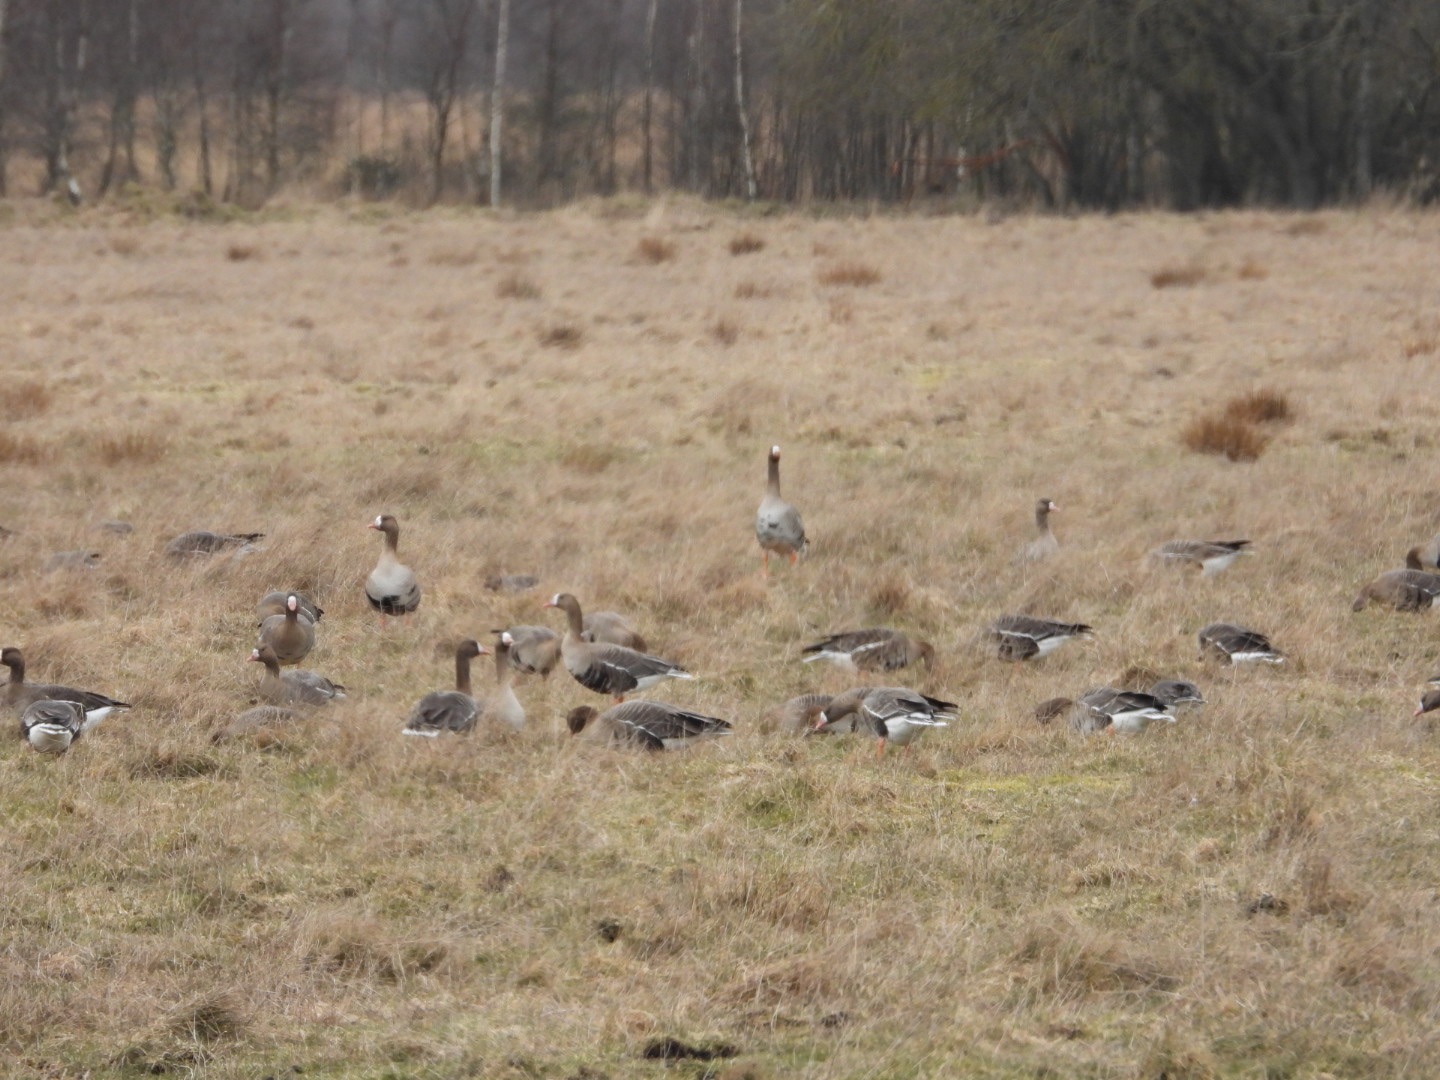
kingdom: Animalia
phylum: Chordata
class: Aves
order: Anseriformes
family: Anatidae
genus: Anser
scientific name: Anser albifrons
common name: Blisgås
